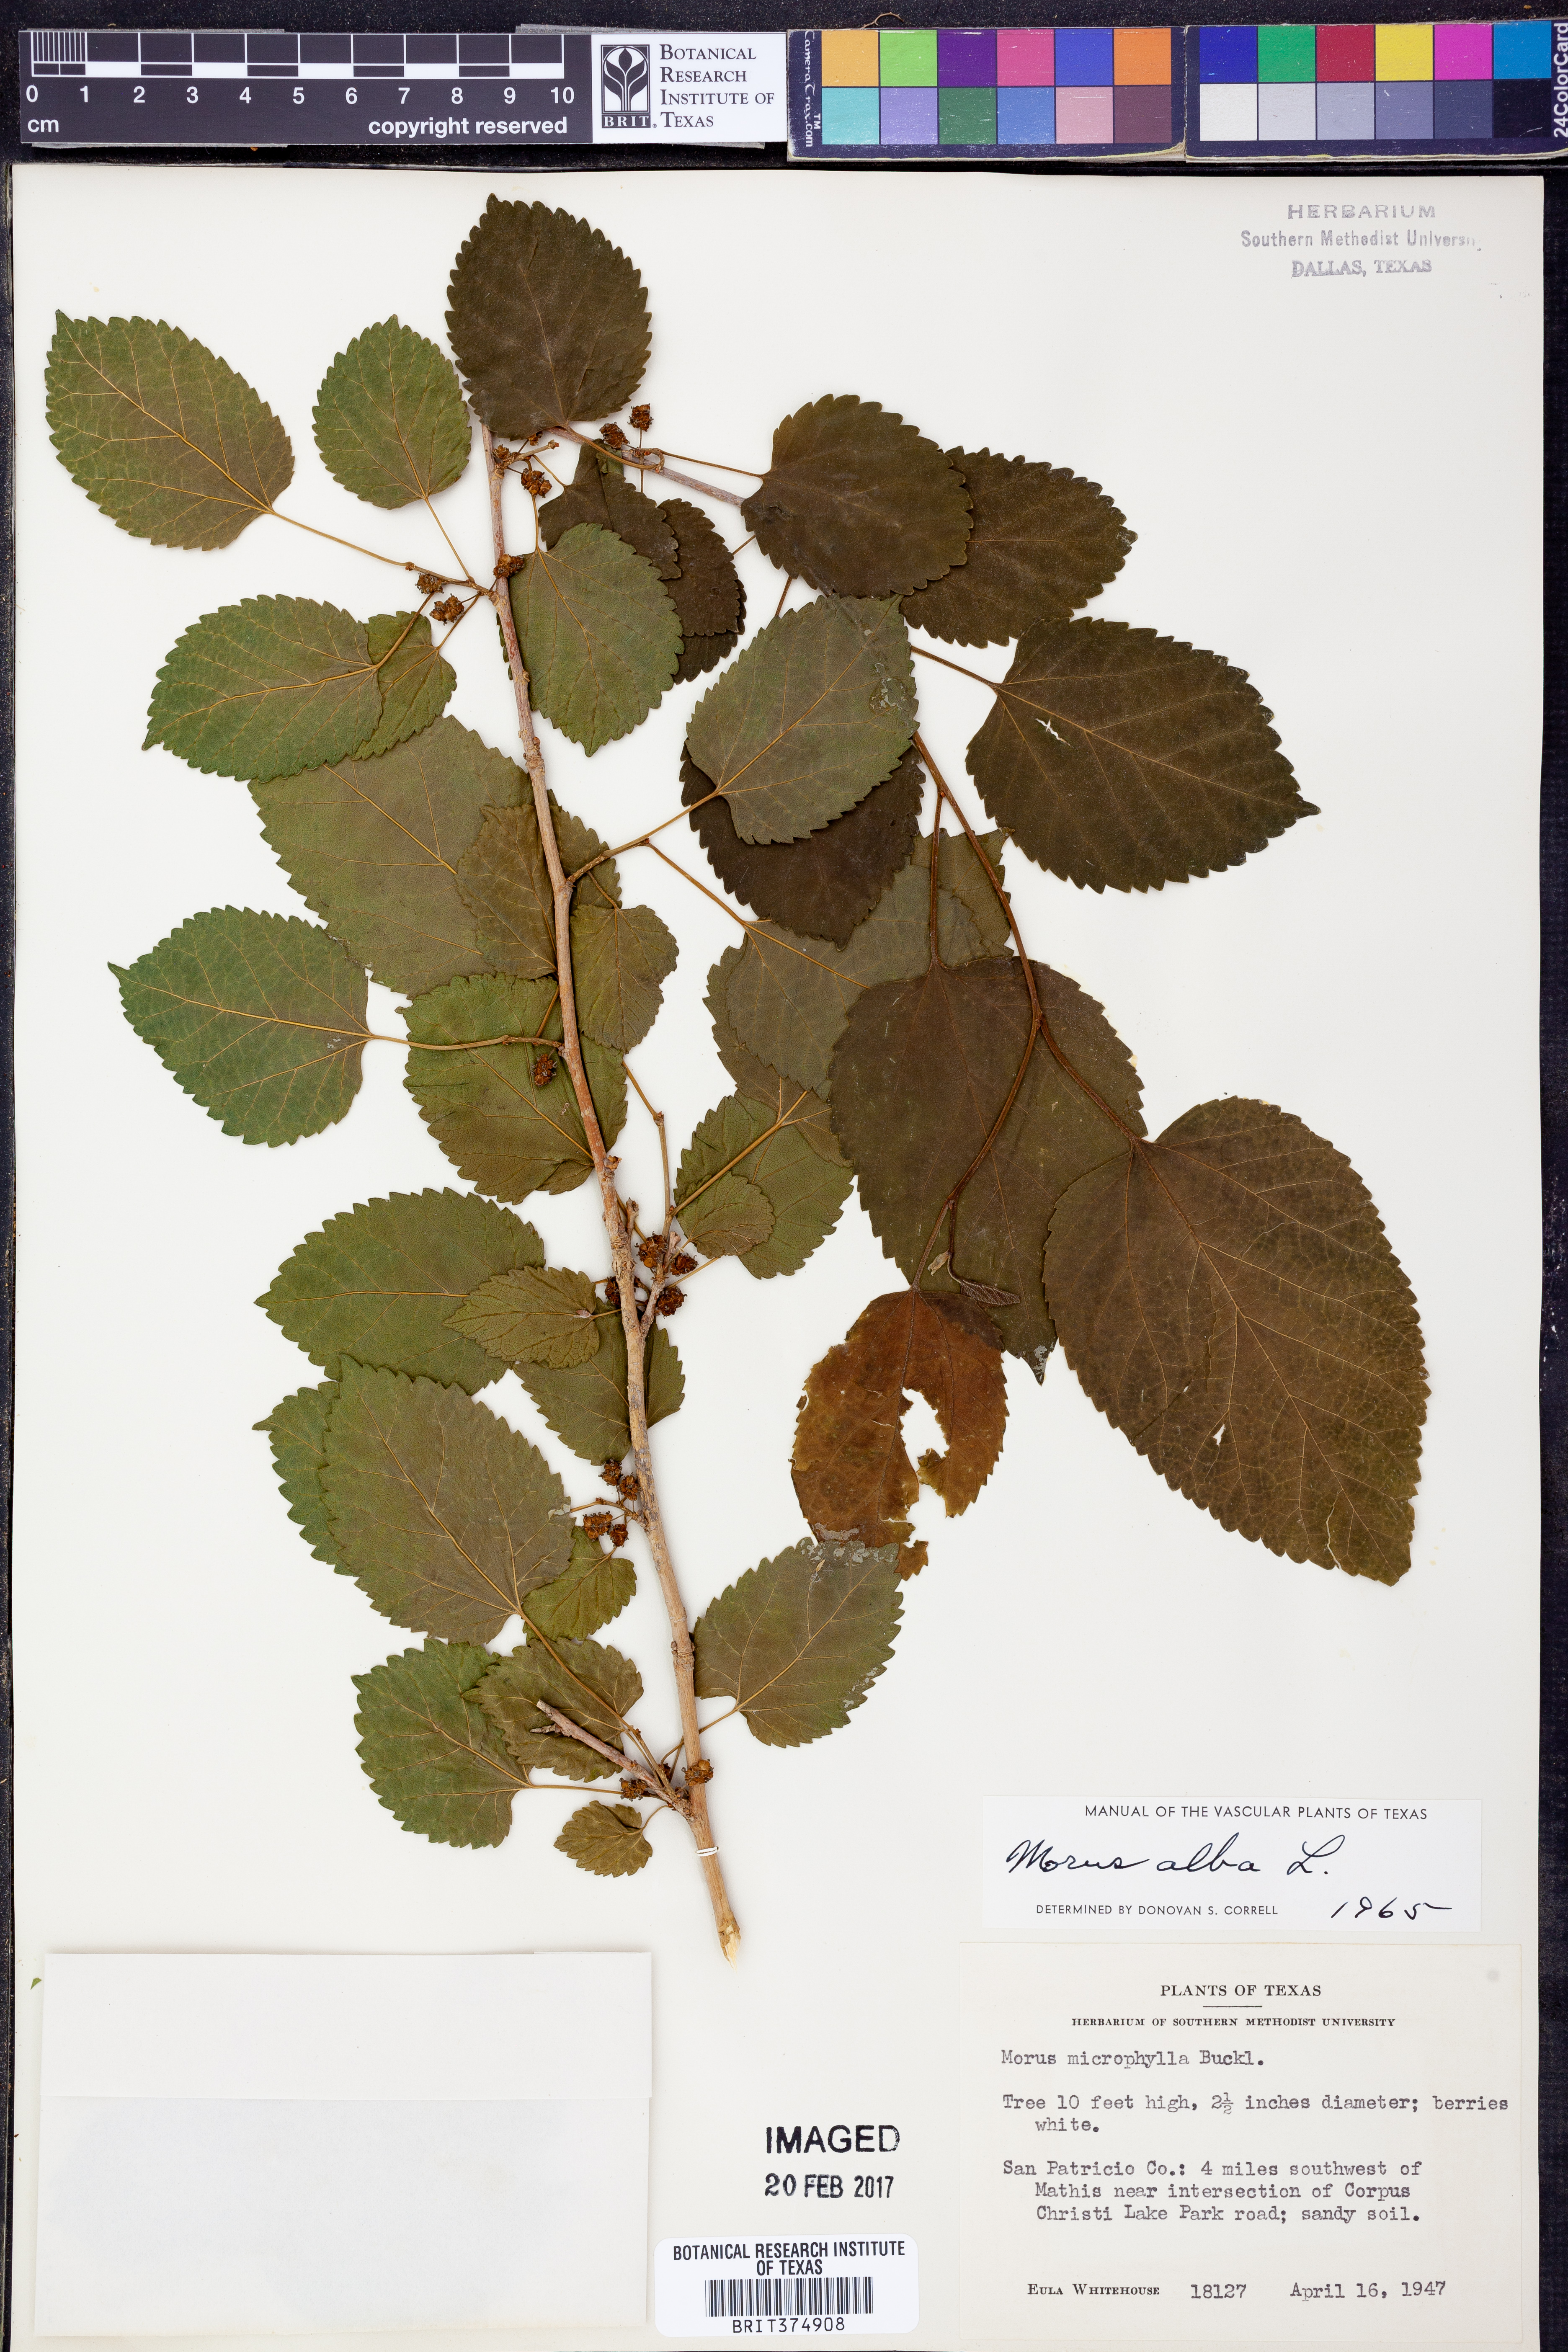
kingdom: Plantae
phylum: Tracheophyta
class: Magnoliopsida
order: Rosales
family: Moraceae
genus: Morus
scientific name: Morus alba
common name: White mulberry
